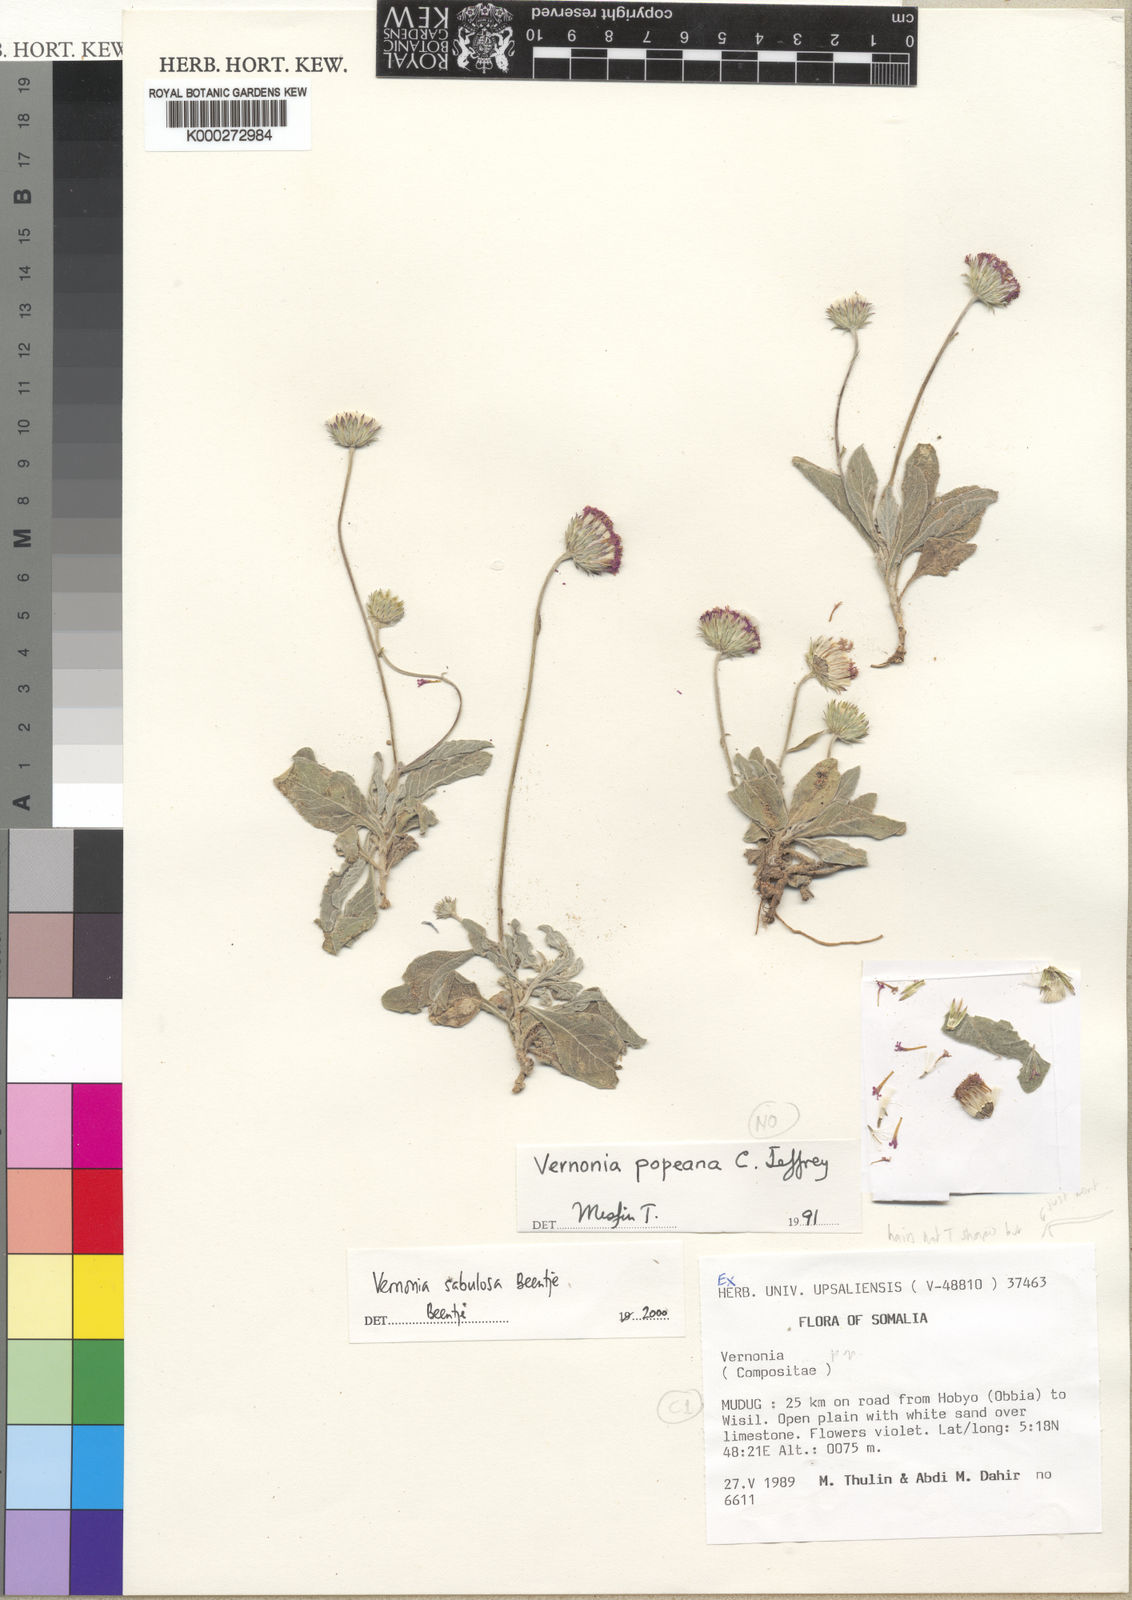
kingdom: Plantae
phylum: Tracheophyta
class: Magnoliopsida
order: Asterales
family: Asteraceae
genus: Vernonia
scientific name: Vernonia popeana
